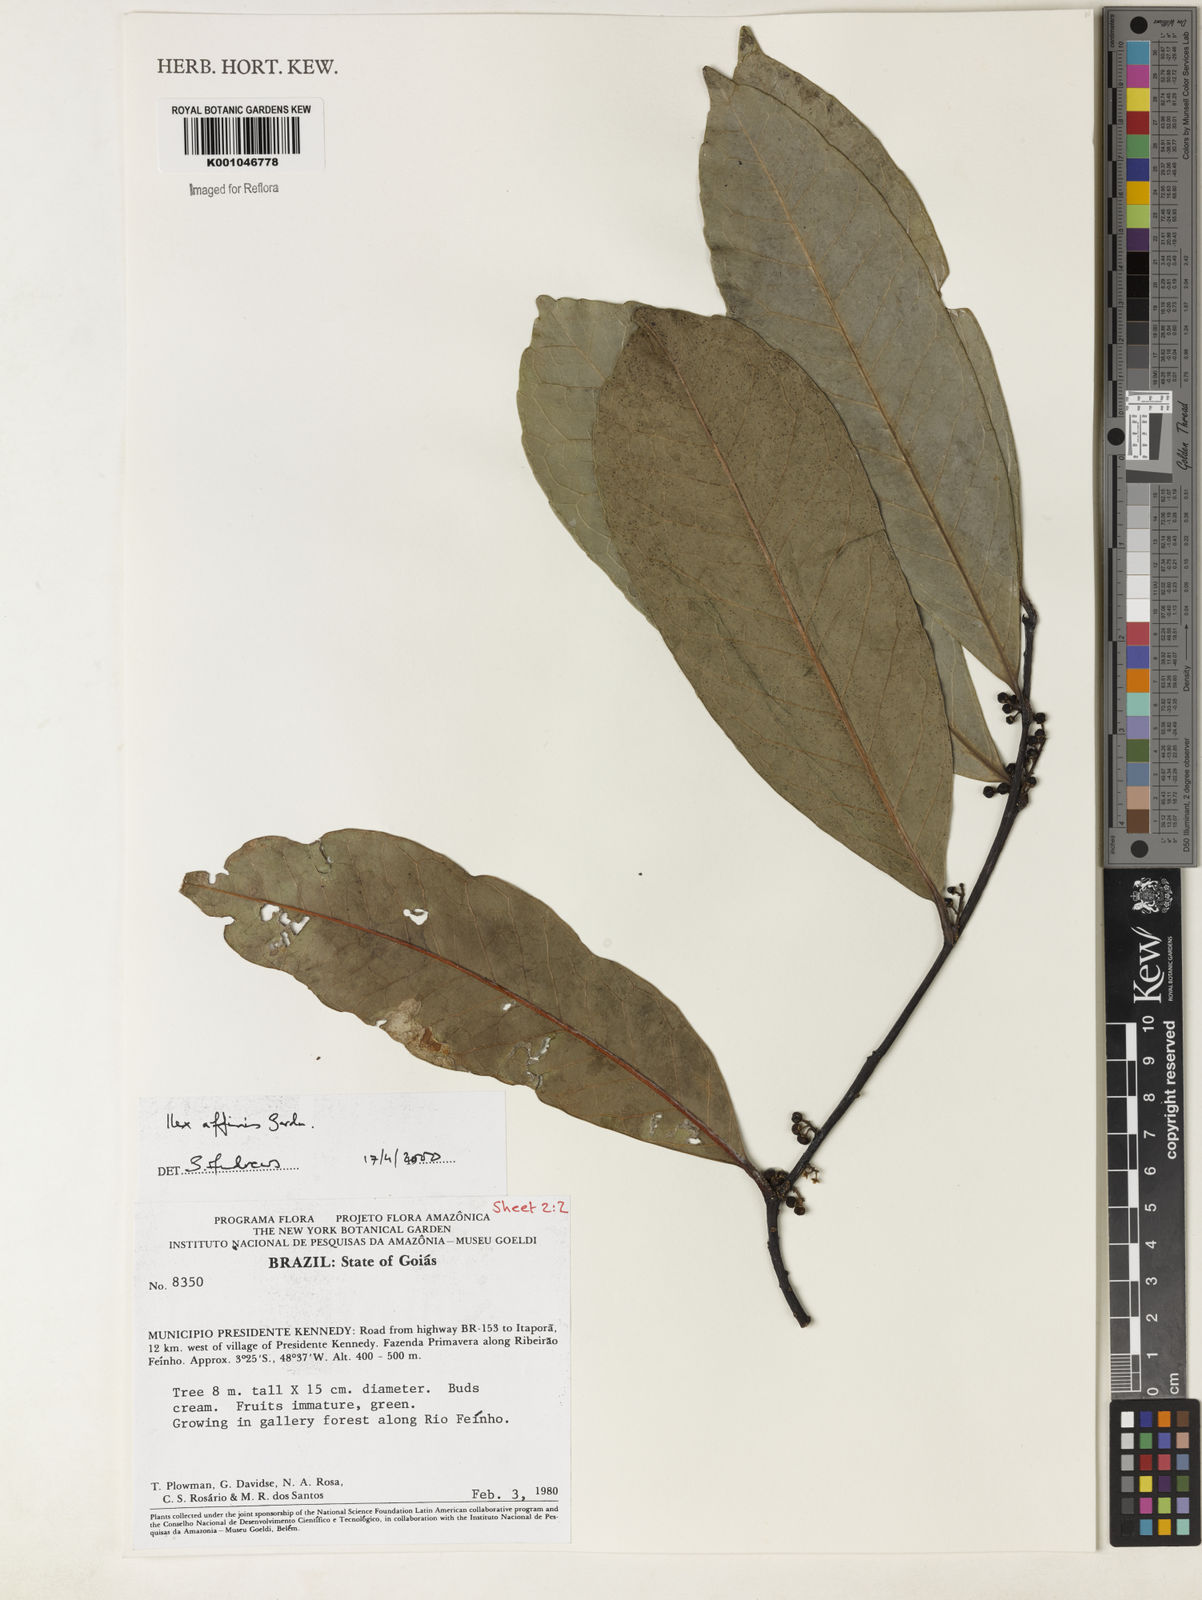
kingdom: Plantae
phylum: Tracheophyta
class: Magnoliopsida
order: Aquifoliales
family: Aquifoliaceae
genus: Ilex
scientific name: Ilex affinis
